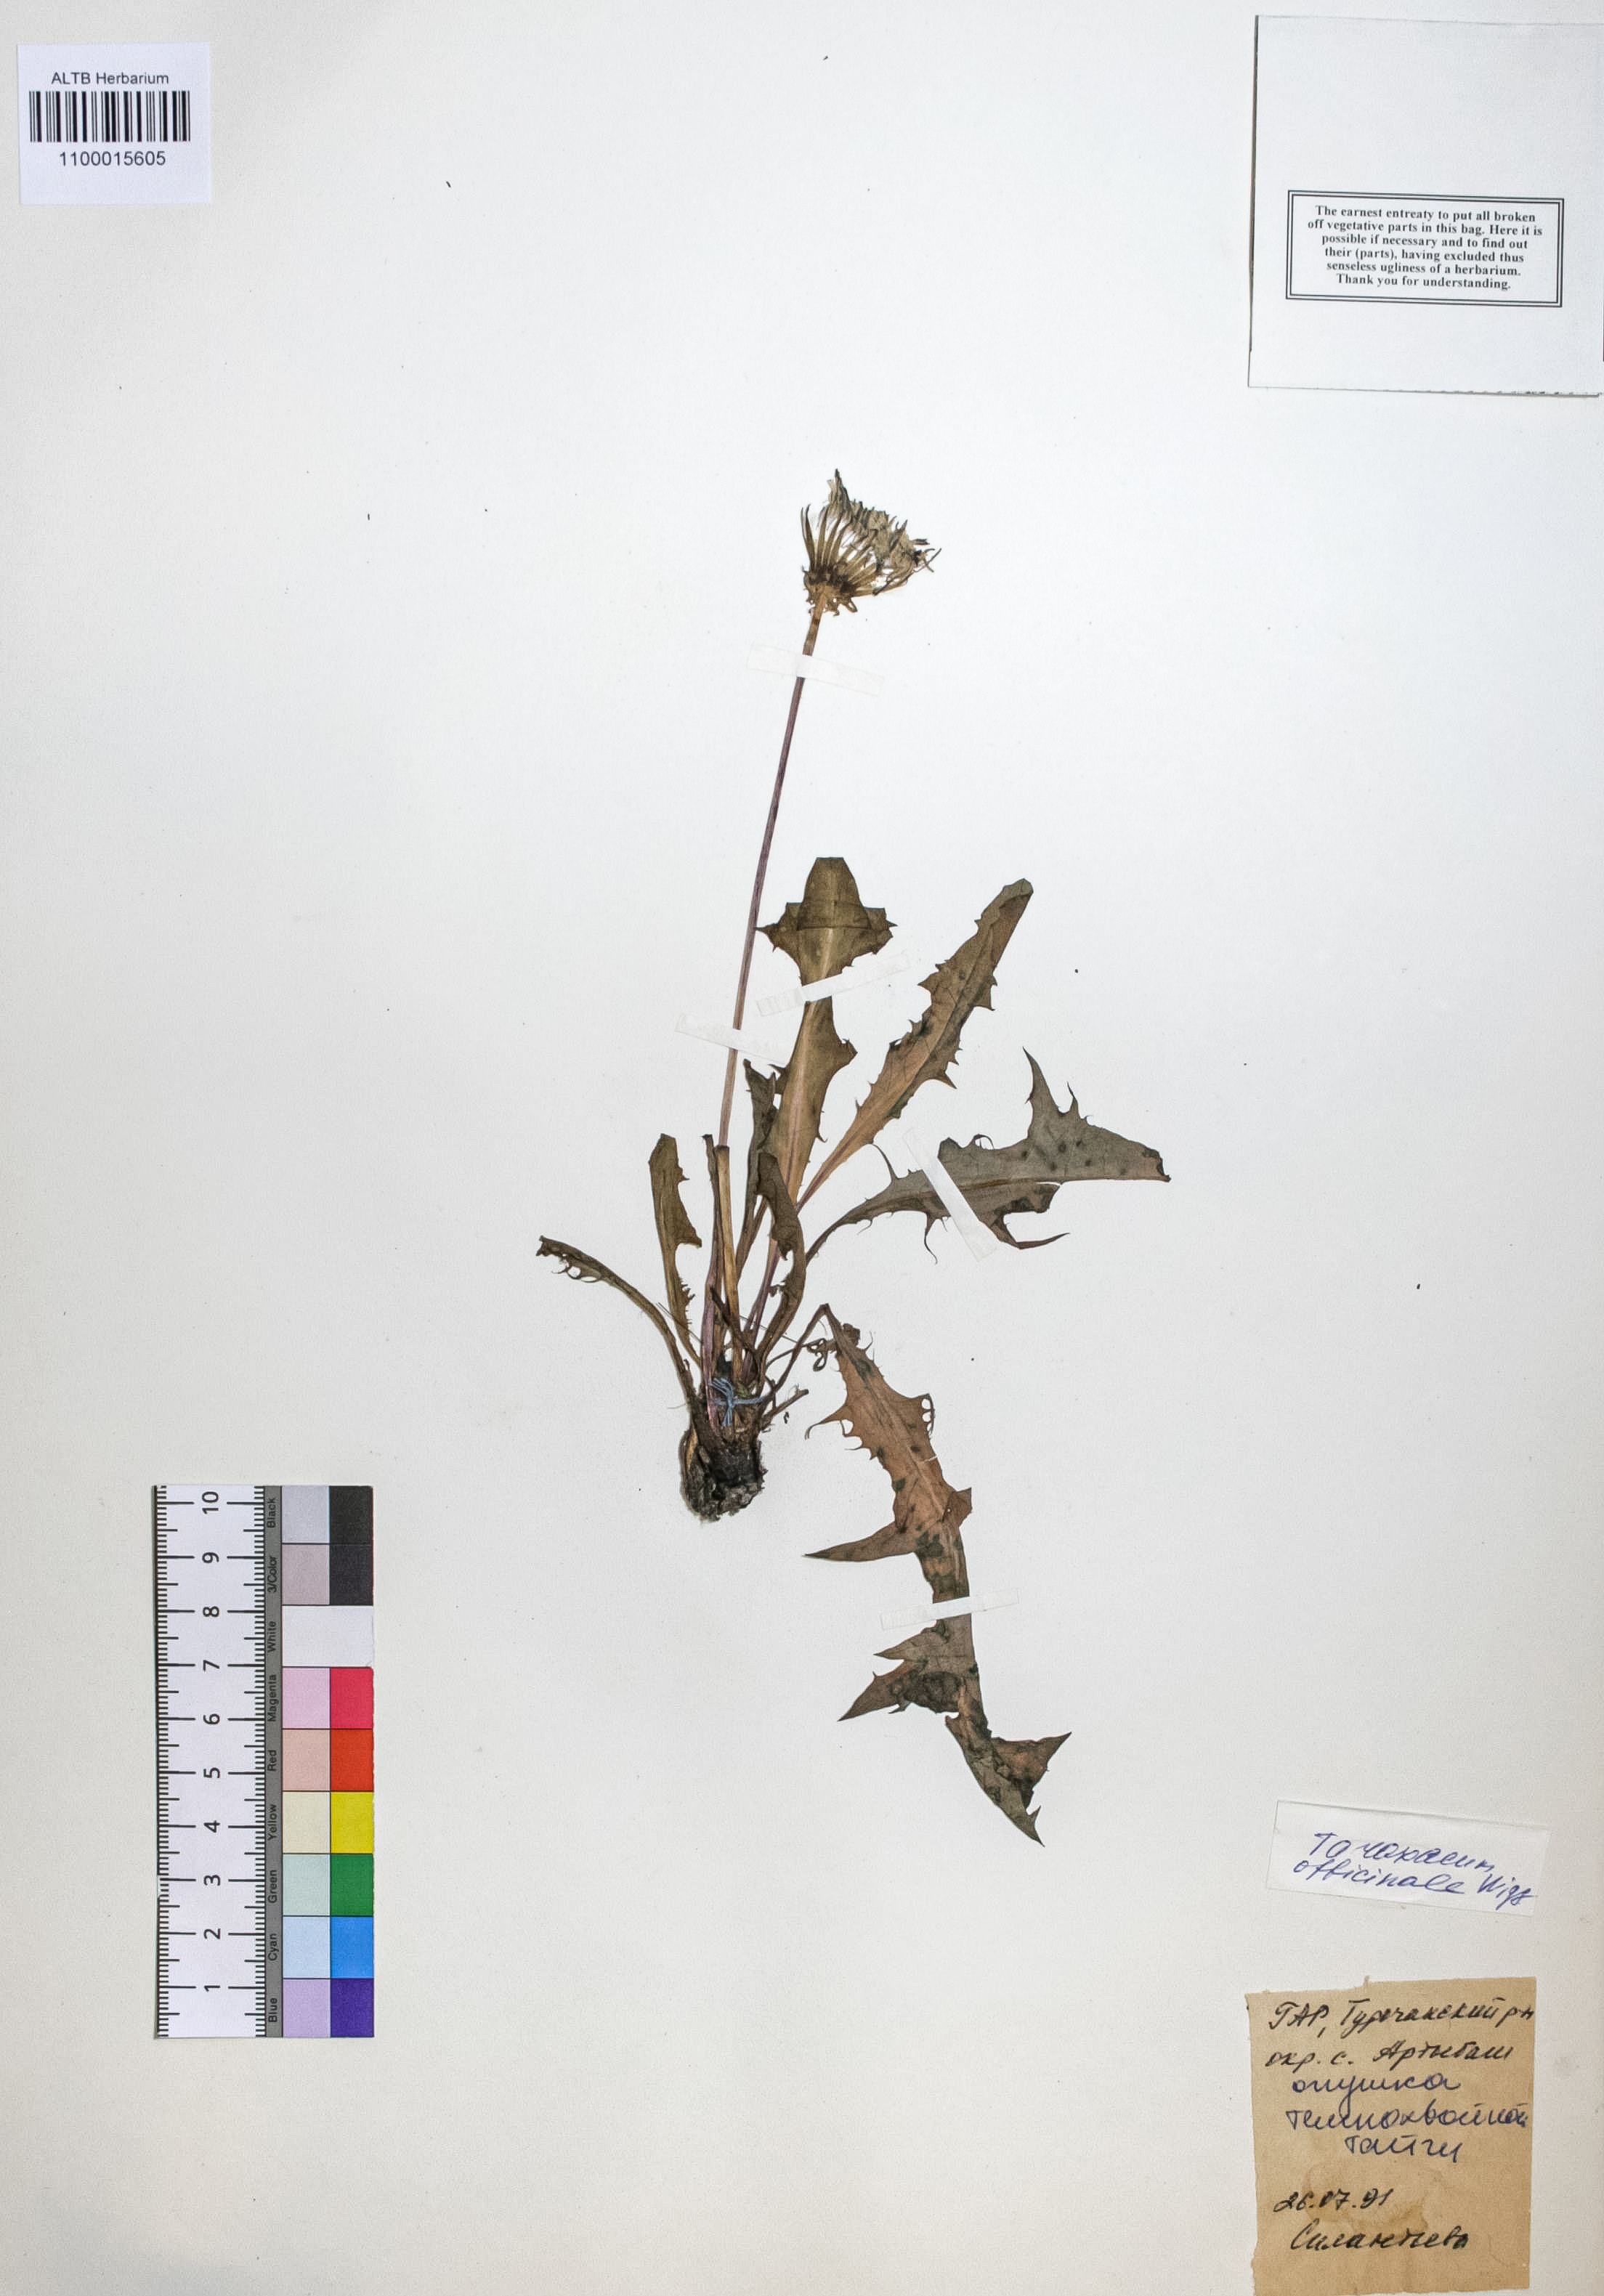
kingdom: Plantae
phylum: Tracheophyta
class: Magnoliopsida
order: Asterales
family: Asteraceae
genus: Taraxacum
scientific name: Taraxacum officinale
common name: Common dandelion
